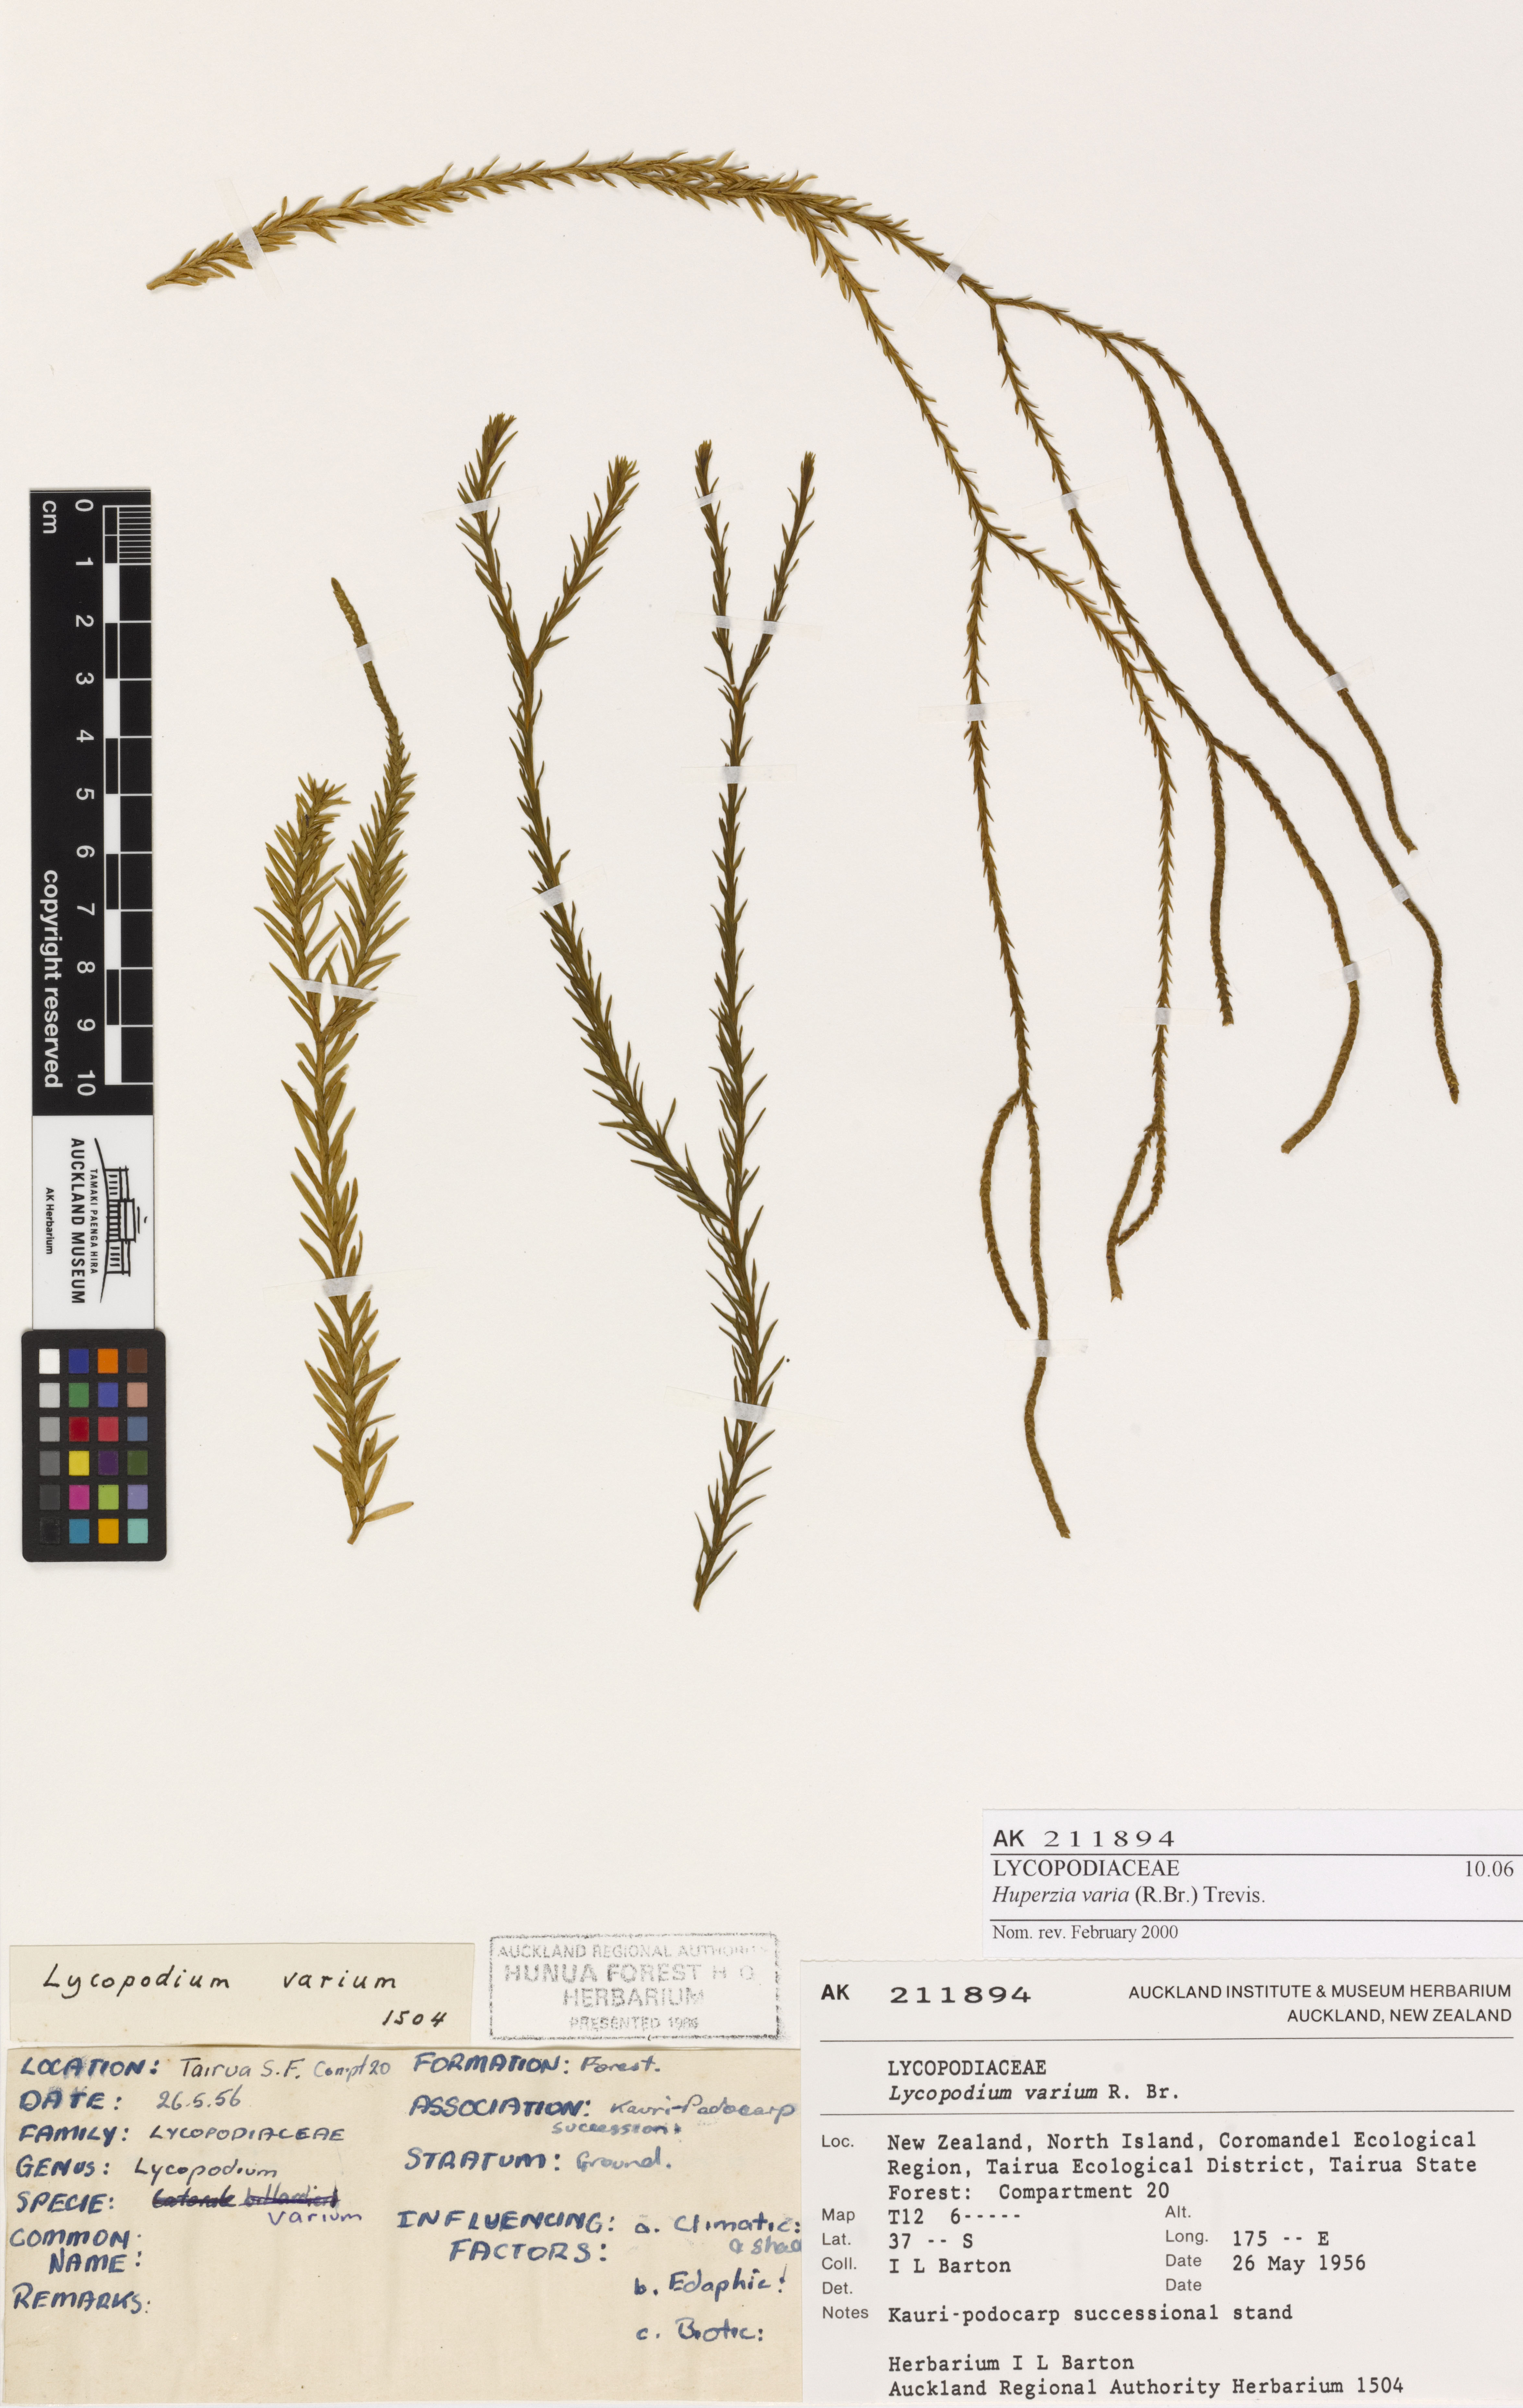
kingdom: Plantae
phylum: Tracheophyta
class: Lycopodiopsida
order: Lycopodiales
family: Lycopodiaceae
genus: Phlegmariurus
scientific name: Phlegmariurus billardierei
